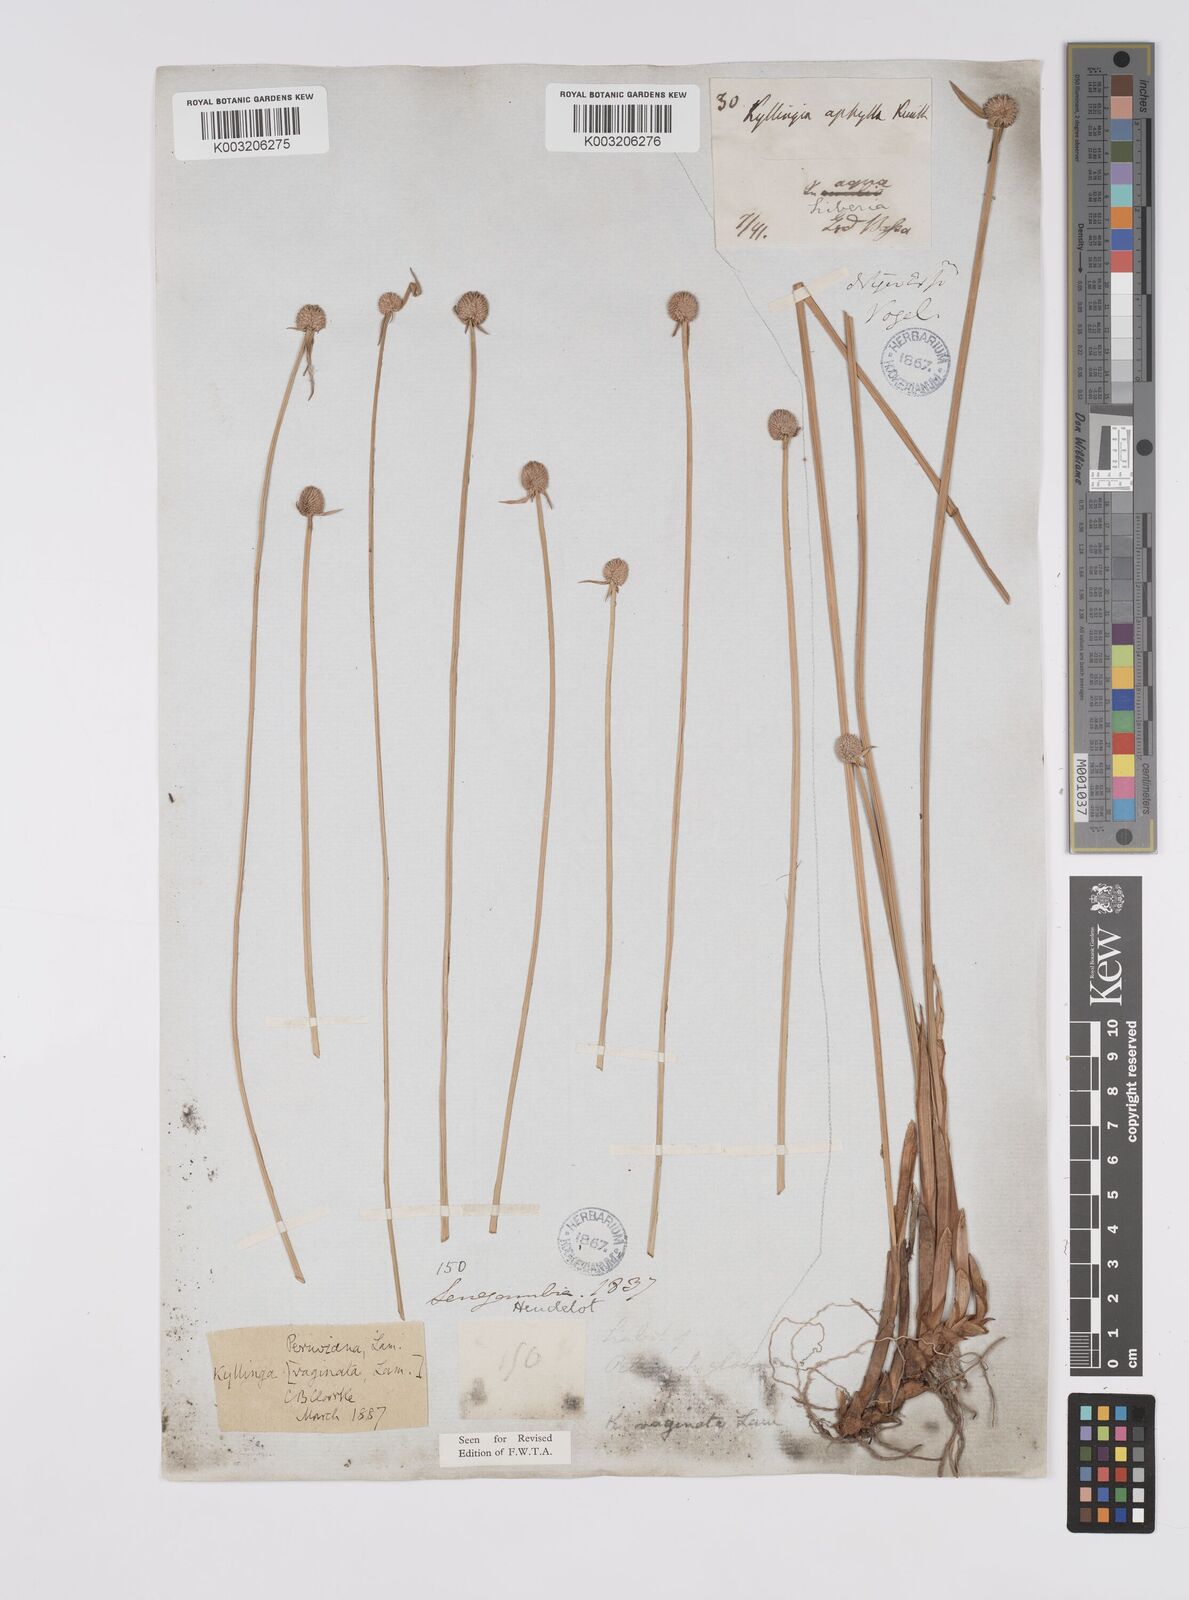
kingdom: Plantae
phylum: Tracheophyta
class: Liliopsida
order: Poales
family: Cyperaceae
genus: Cyperus
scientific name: Cyperus obtusatus
